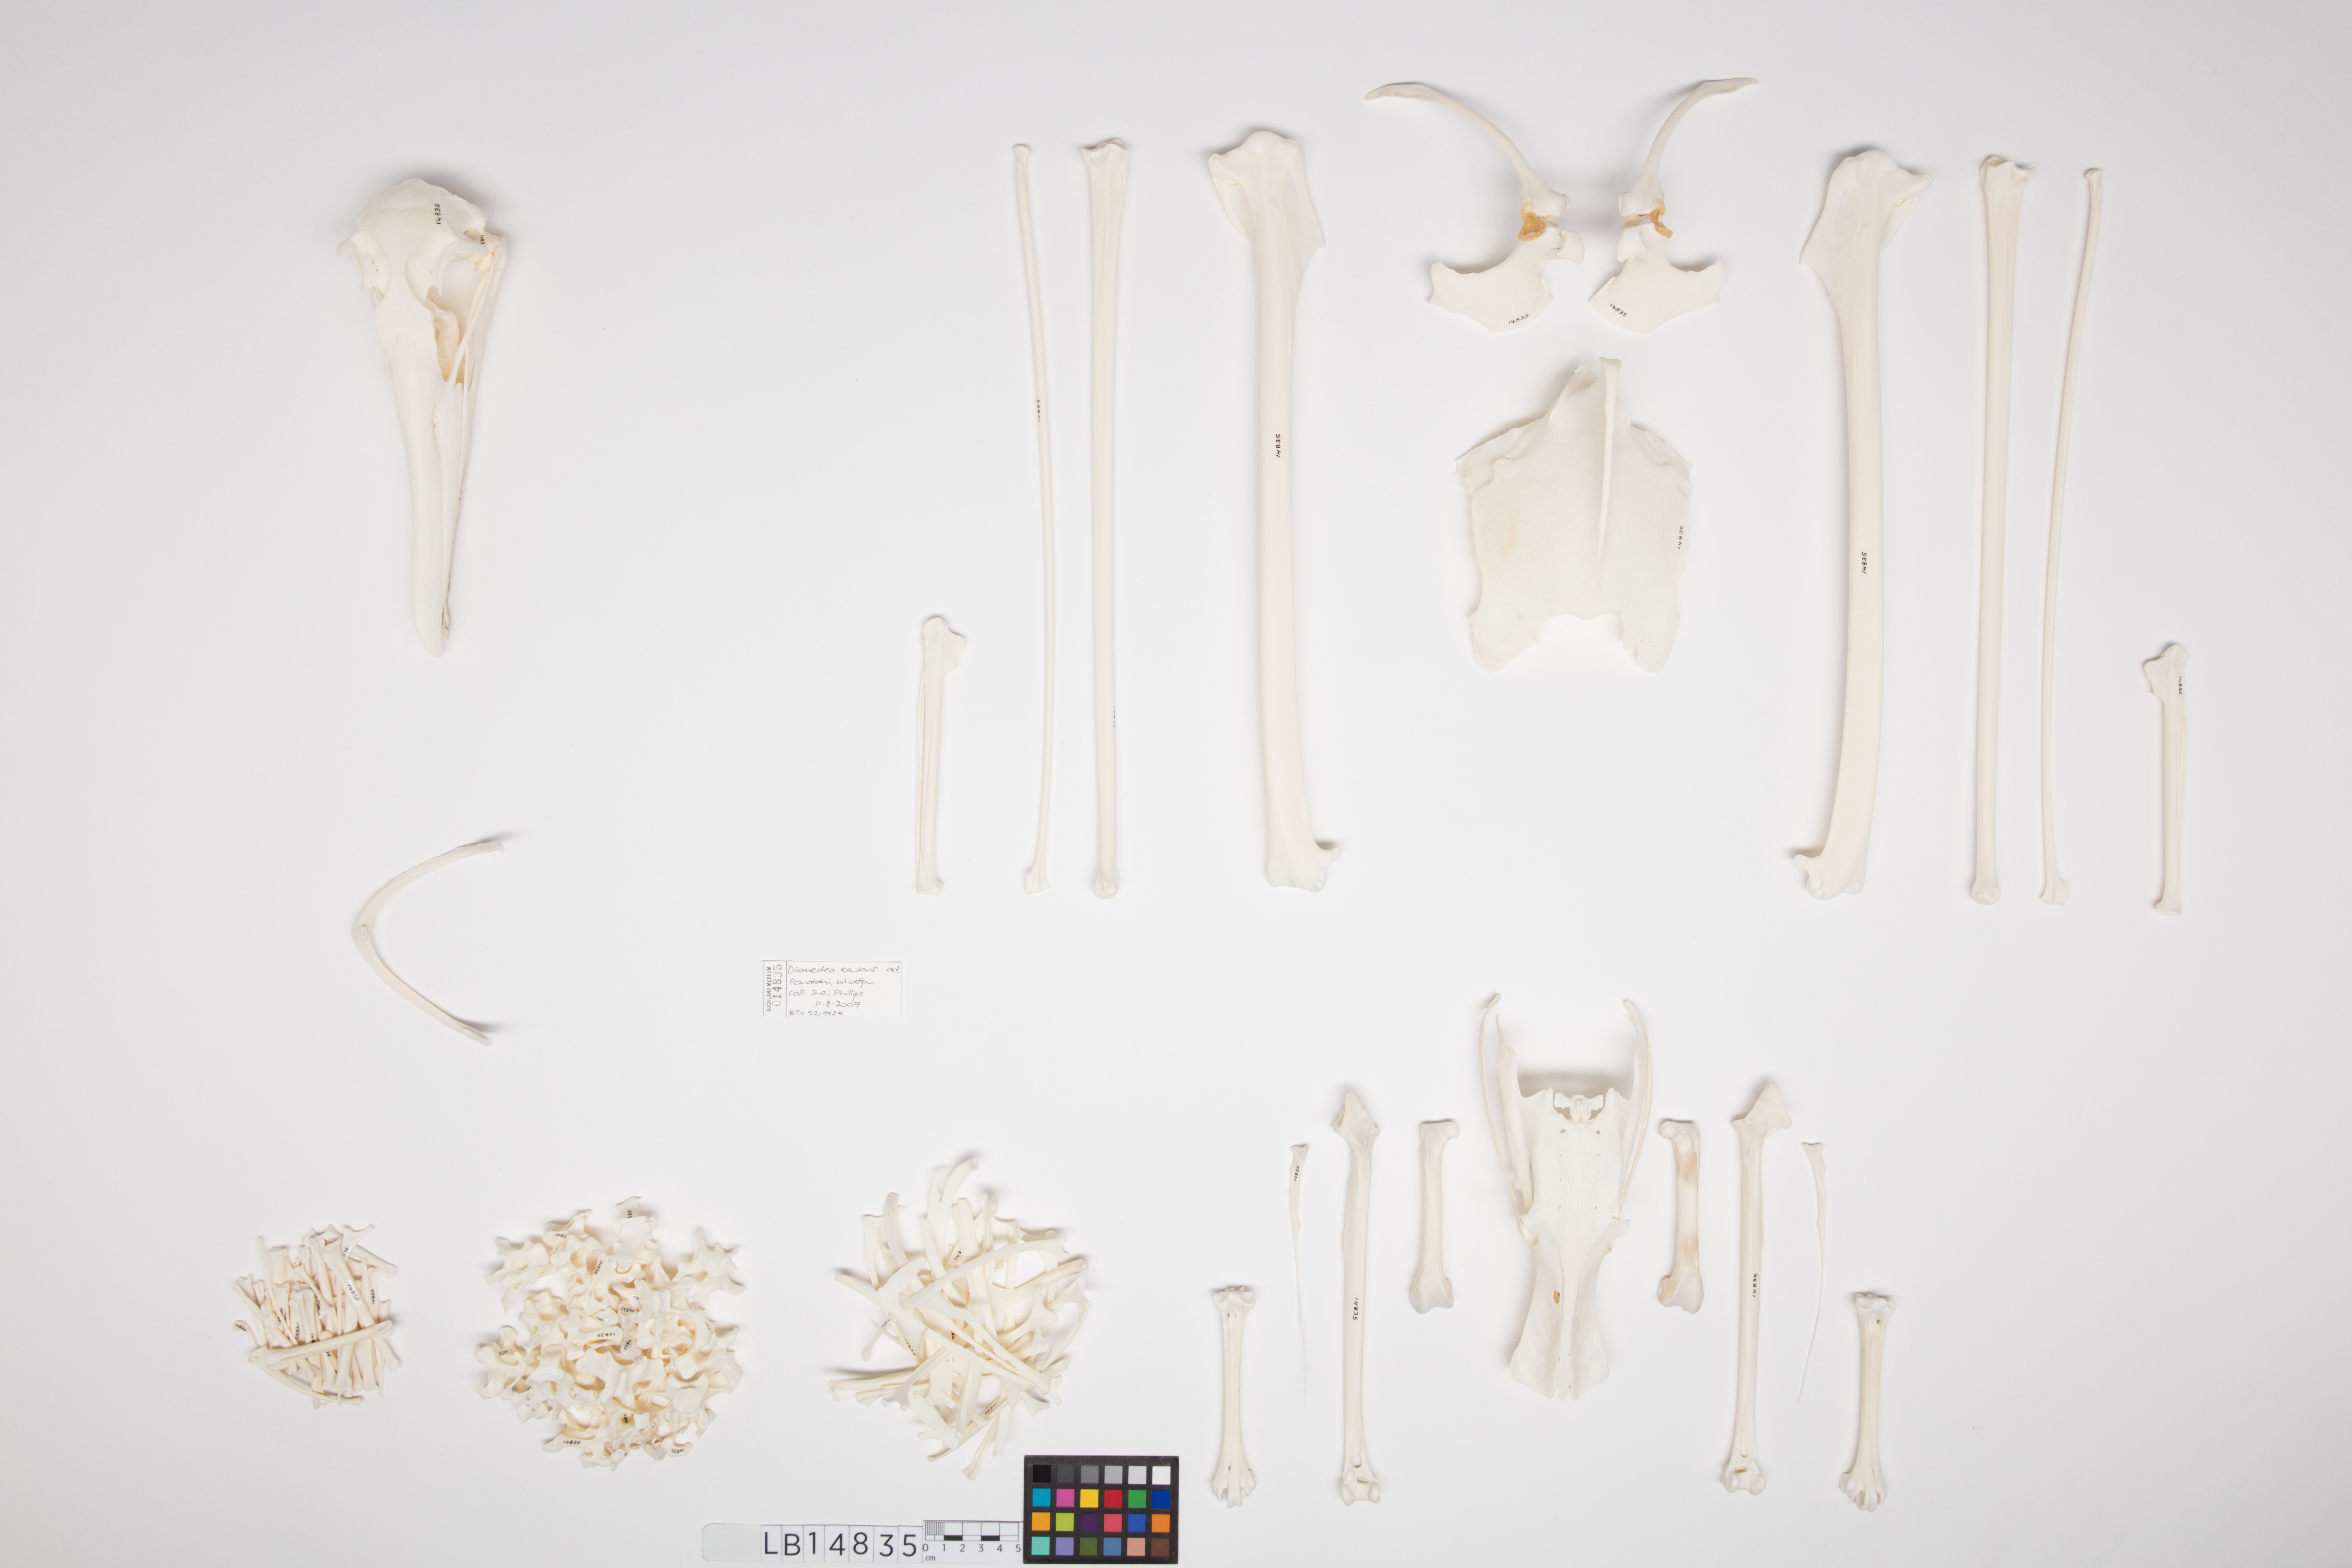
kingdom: Animalia
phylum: Chordata
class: Aves
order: Procellariiformes
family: Diomedeidae
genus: Diomedea
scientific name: Diomedea exulans
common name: Wandering albatross
